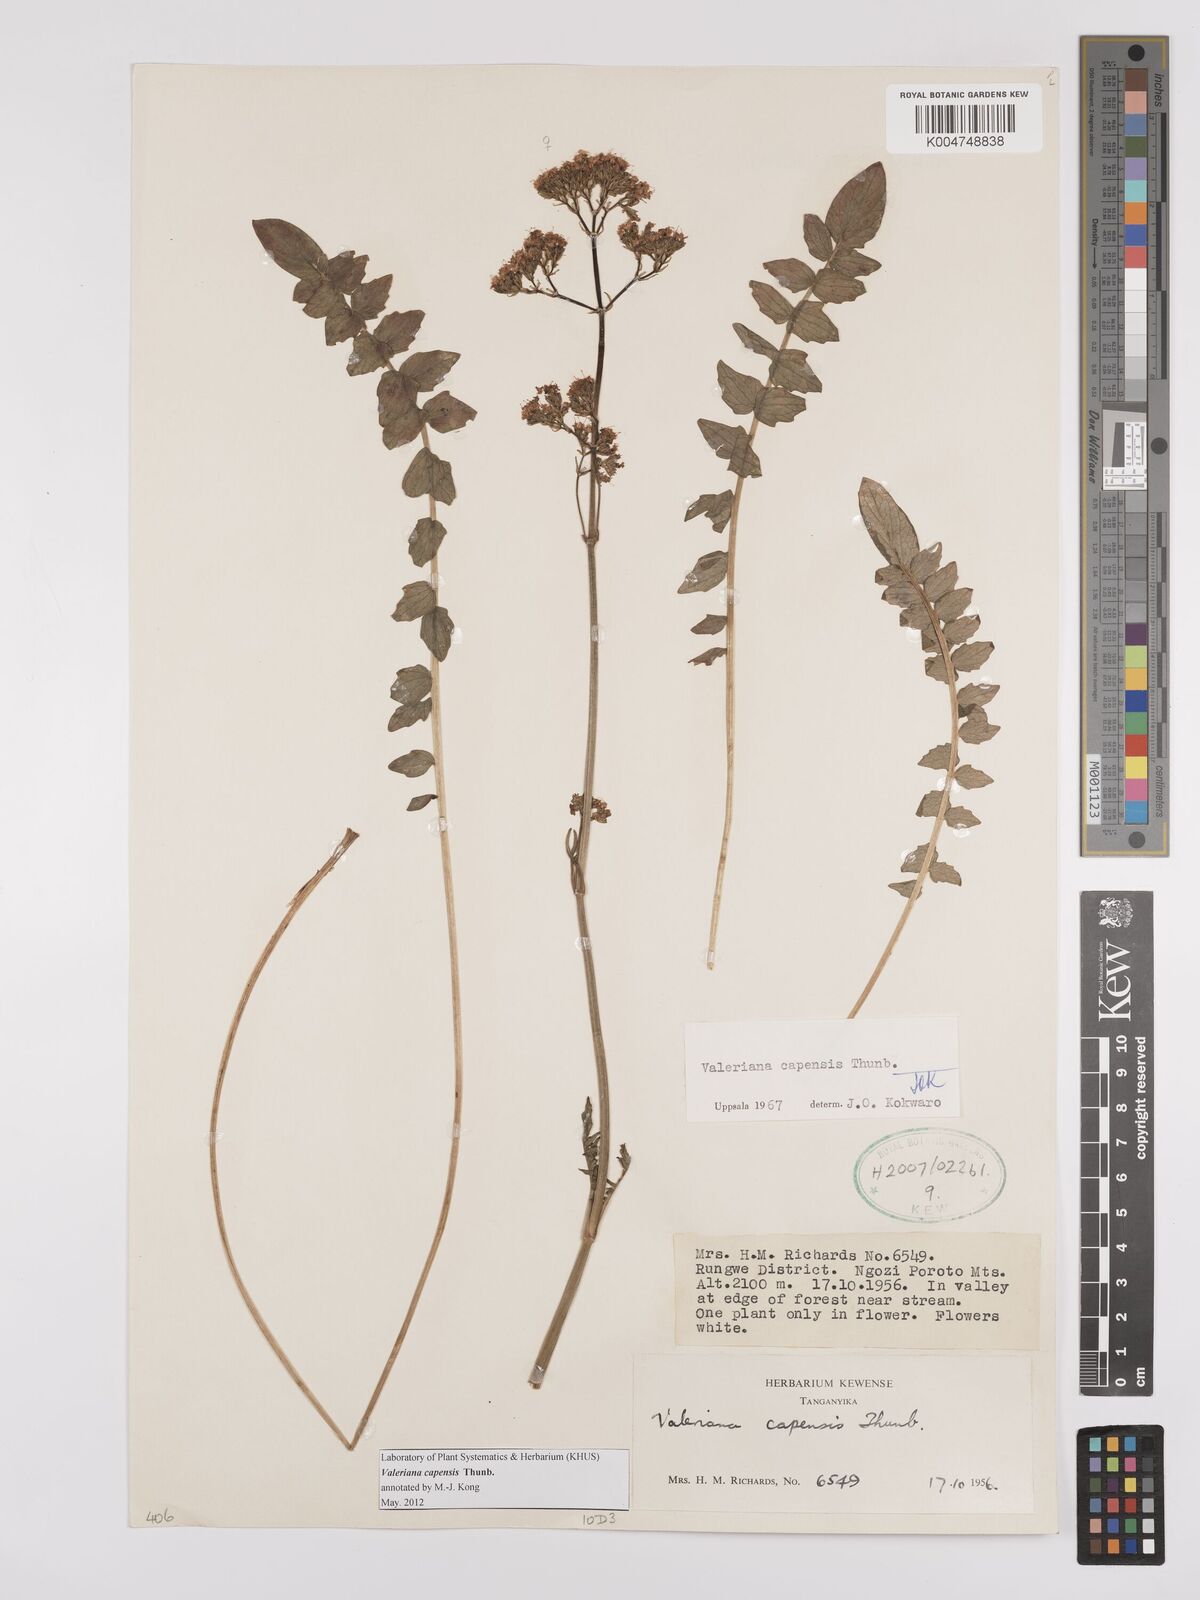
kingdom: Plantae
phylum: Tracheophyta
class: Magnoliopsida
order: Dipsacales
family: Caprifoliaceae
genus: Valeriana
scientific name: Valeriana capensis
